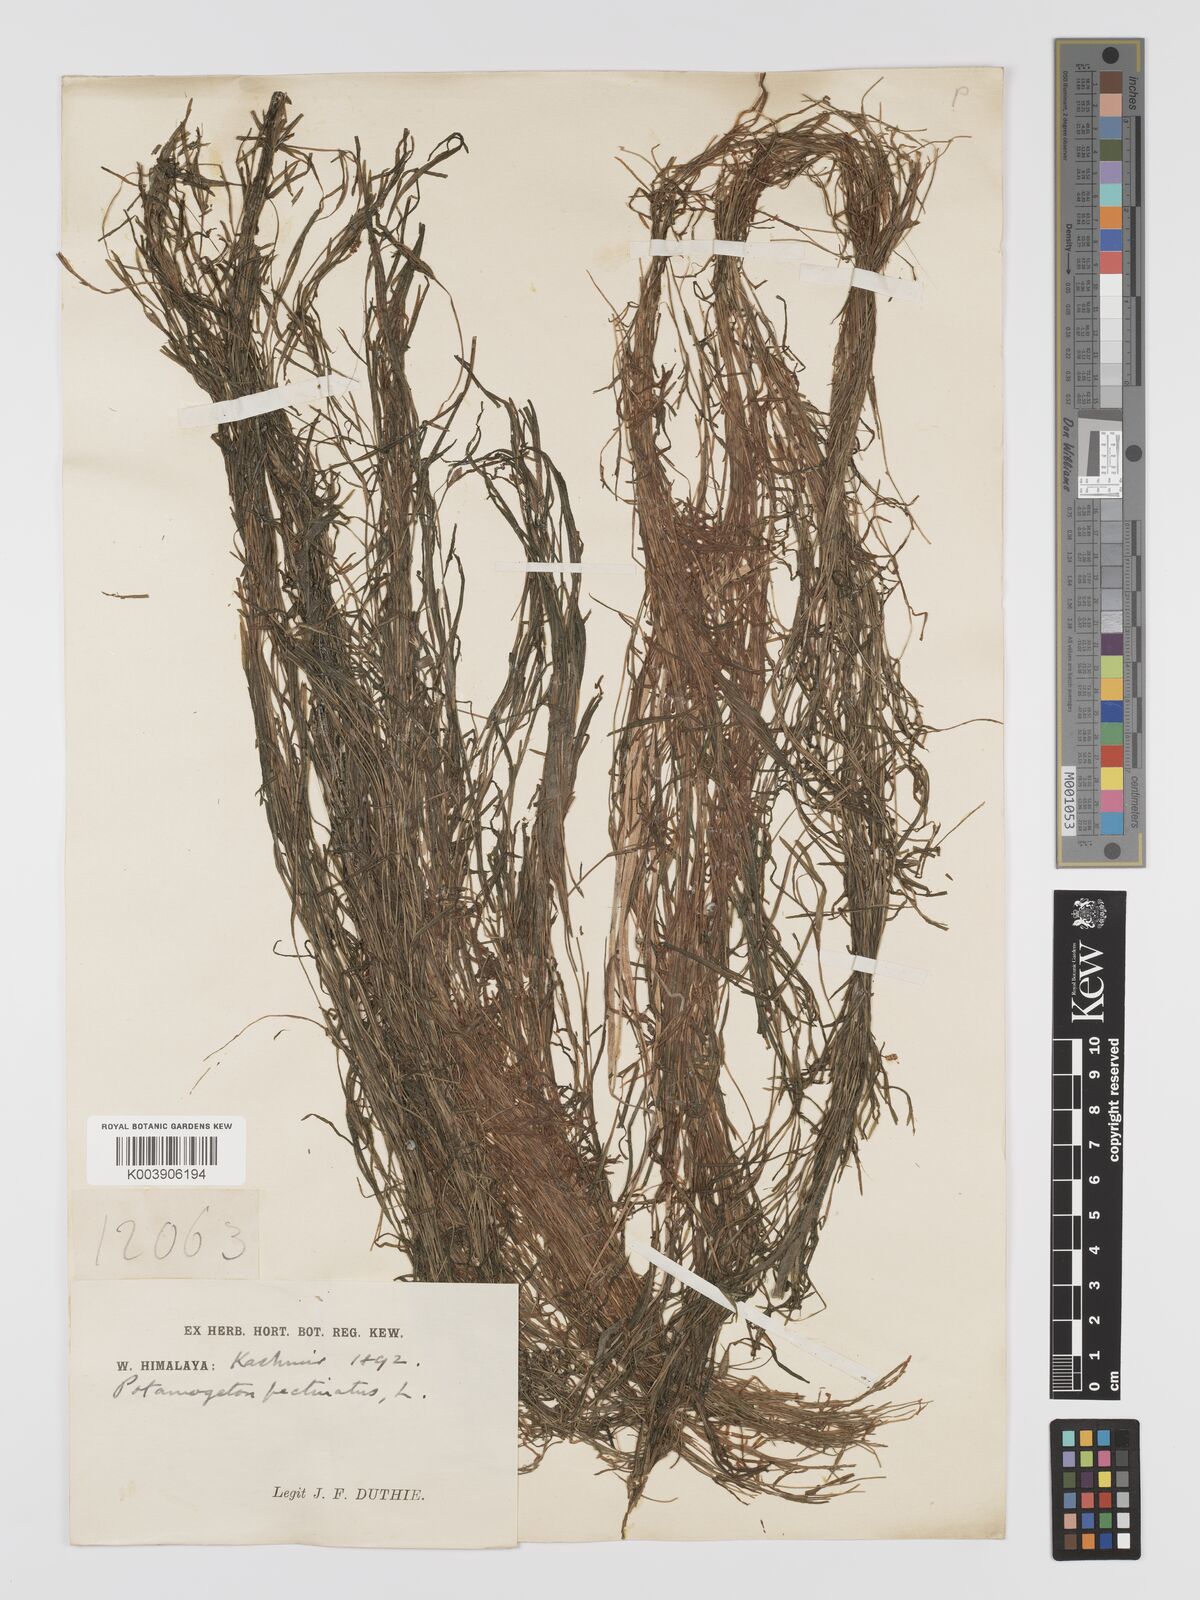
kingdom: Plantae
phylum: Tracheophyta
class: Liliopsida
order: Alismatales
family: Potamogetonaceae
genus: Potamogeton
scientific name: Potamogeton pusillus
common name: Lesser pondweed
